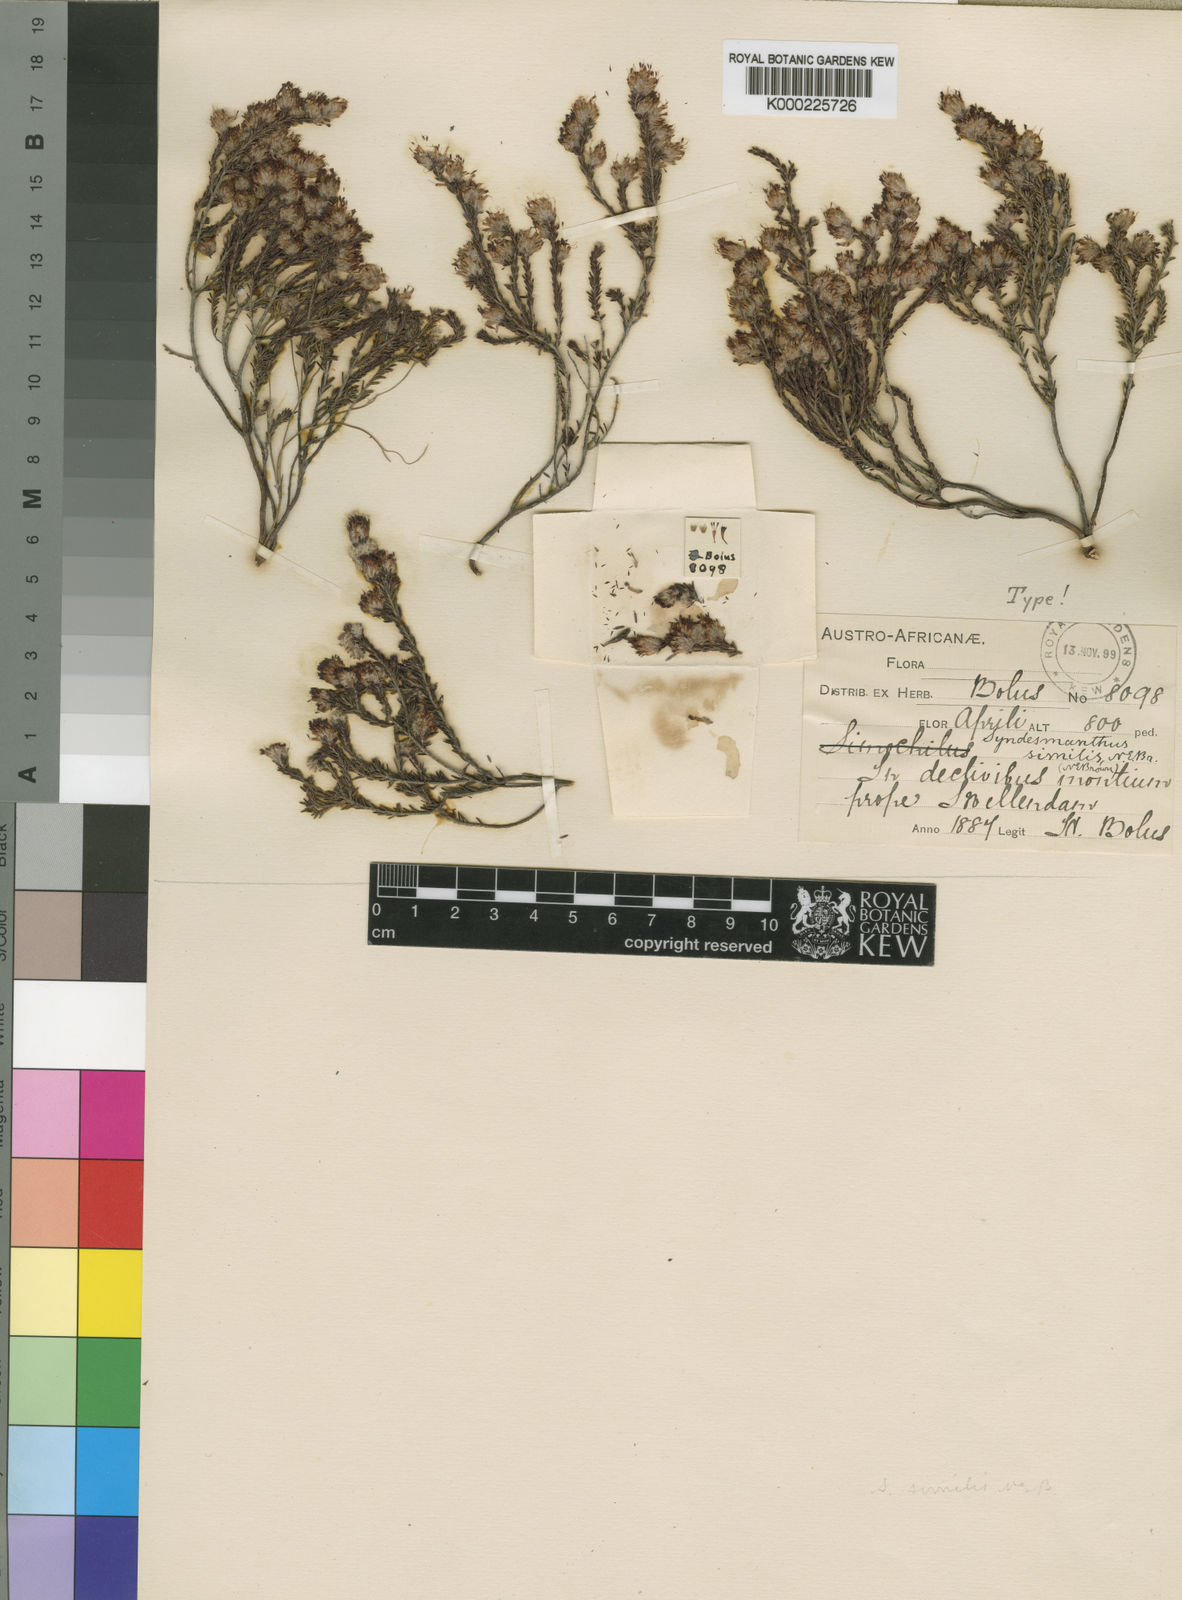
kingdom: Plantae
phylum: Tracheophyta
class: Magnoliopsida
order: Ericales
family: Ericaceae
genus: Erica
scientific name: Erica similis
